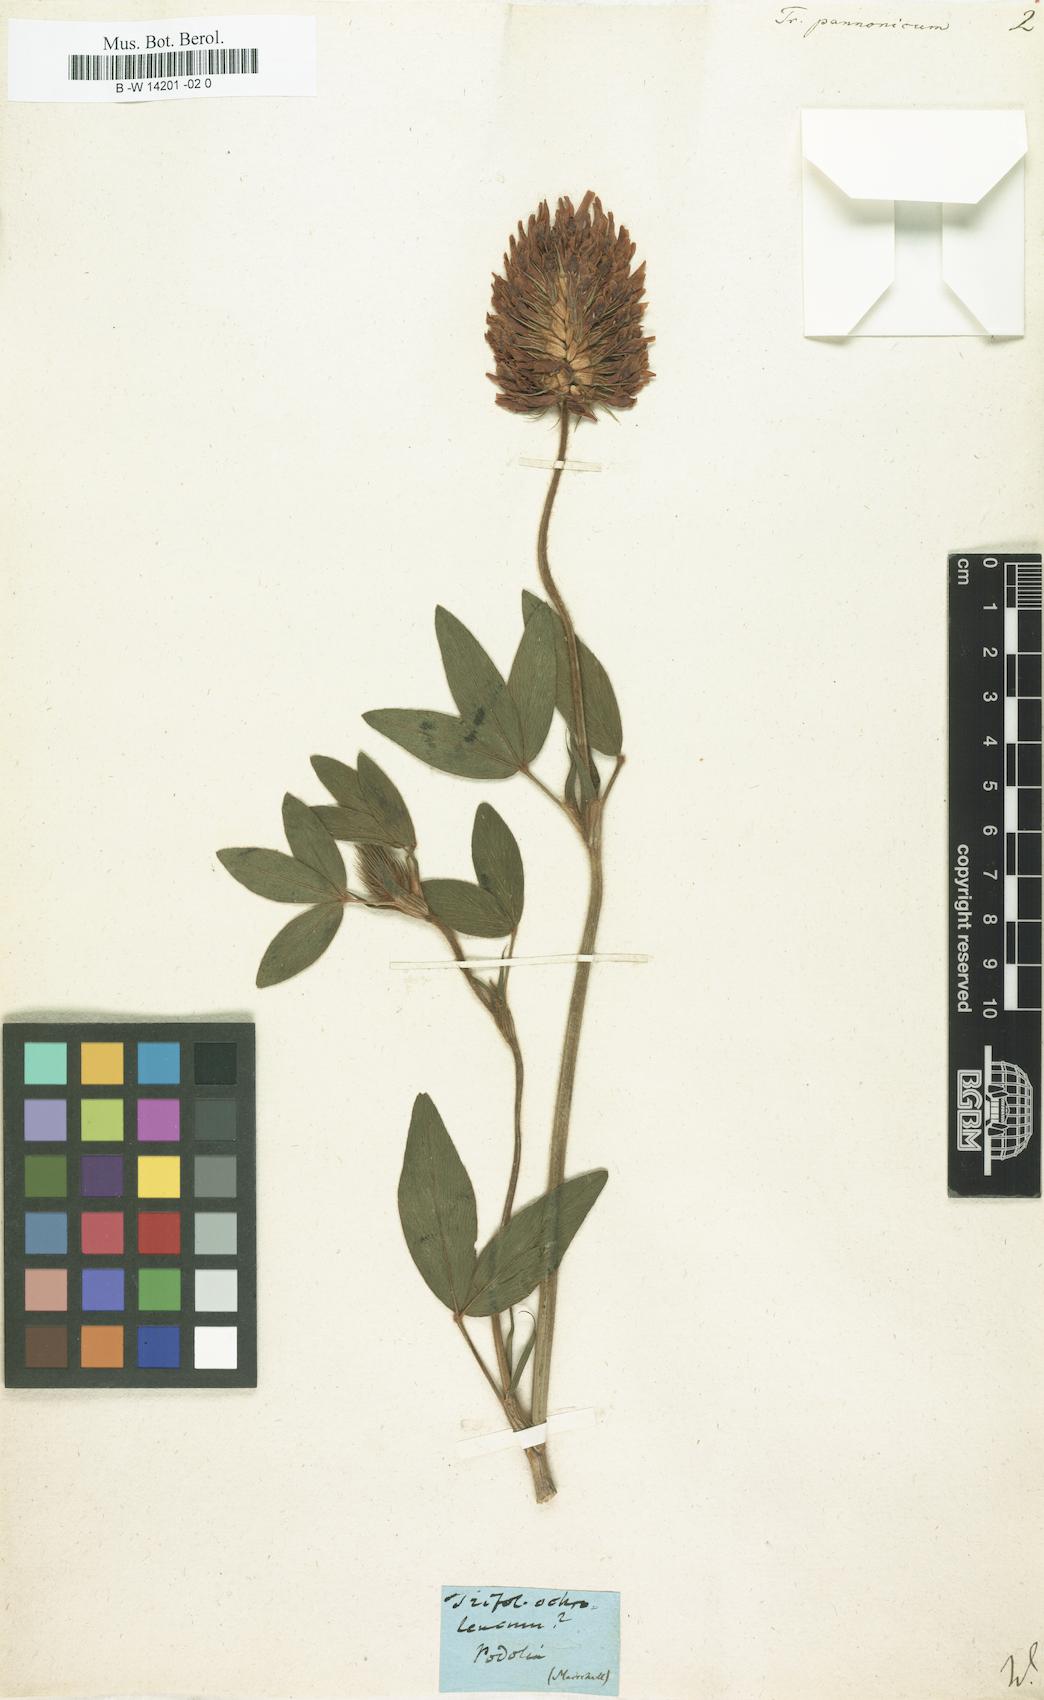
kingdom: Plantae
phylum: Tracheophyta
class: Magnoliopsida
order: Fabales
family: Fabaceae
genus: Trifolium
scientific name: Trifolium pannonicum
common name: Hungarian clover
